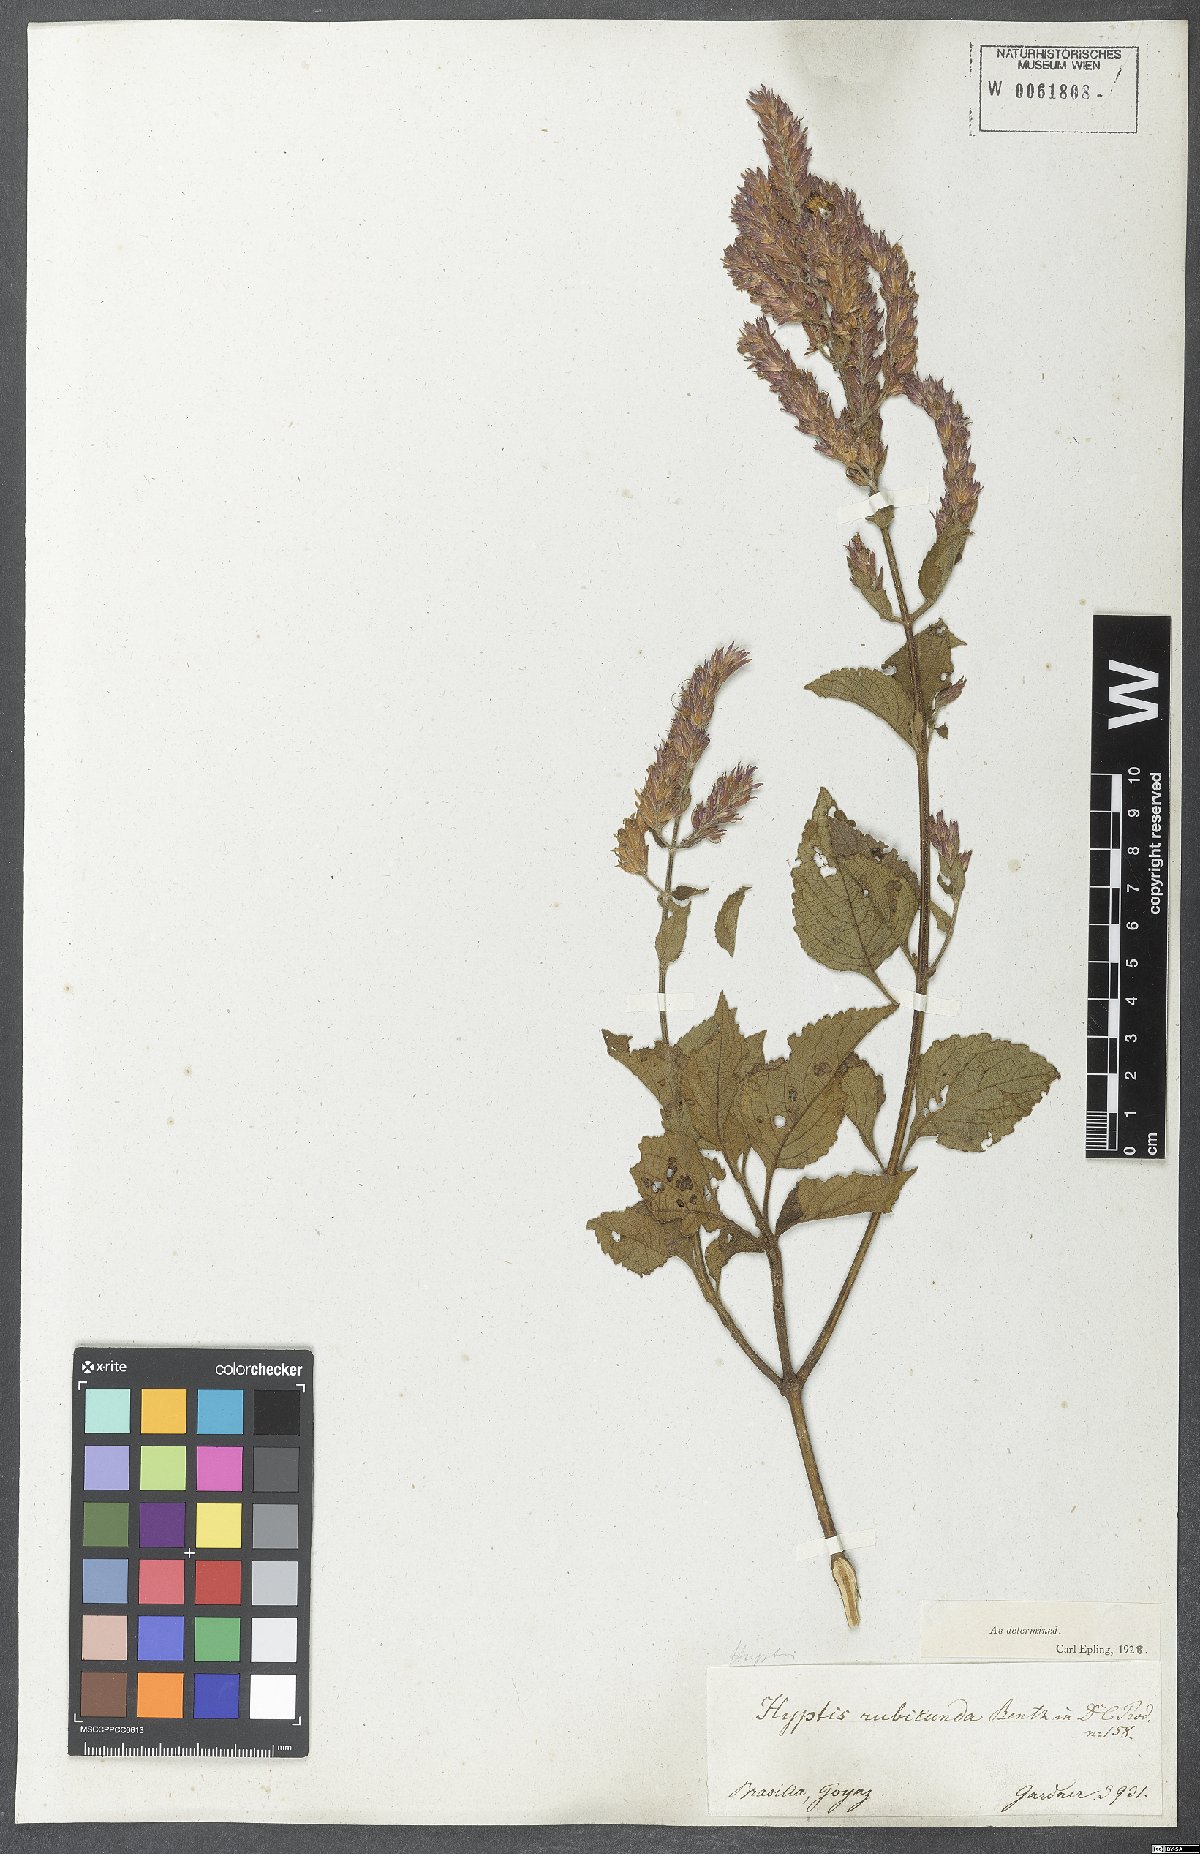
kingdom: Plantae
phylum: Tracheophyta
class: Magnoliopsida
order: Lamiales
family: Lamiaceae
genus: Cantinoa
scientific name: Cantinoa rubicunda
